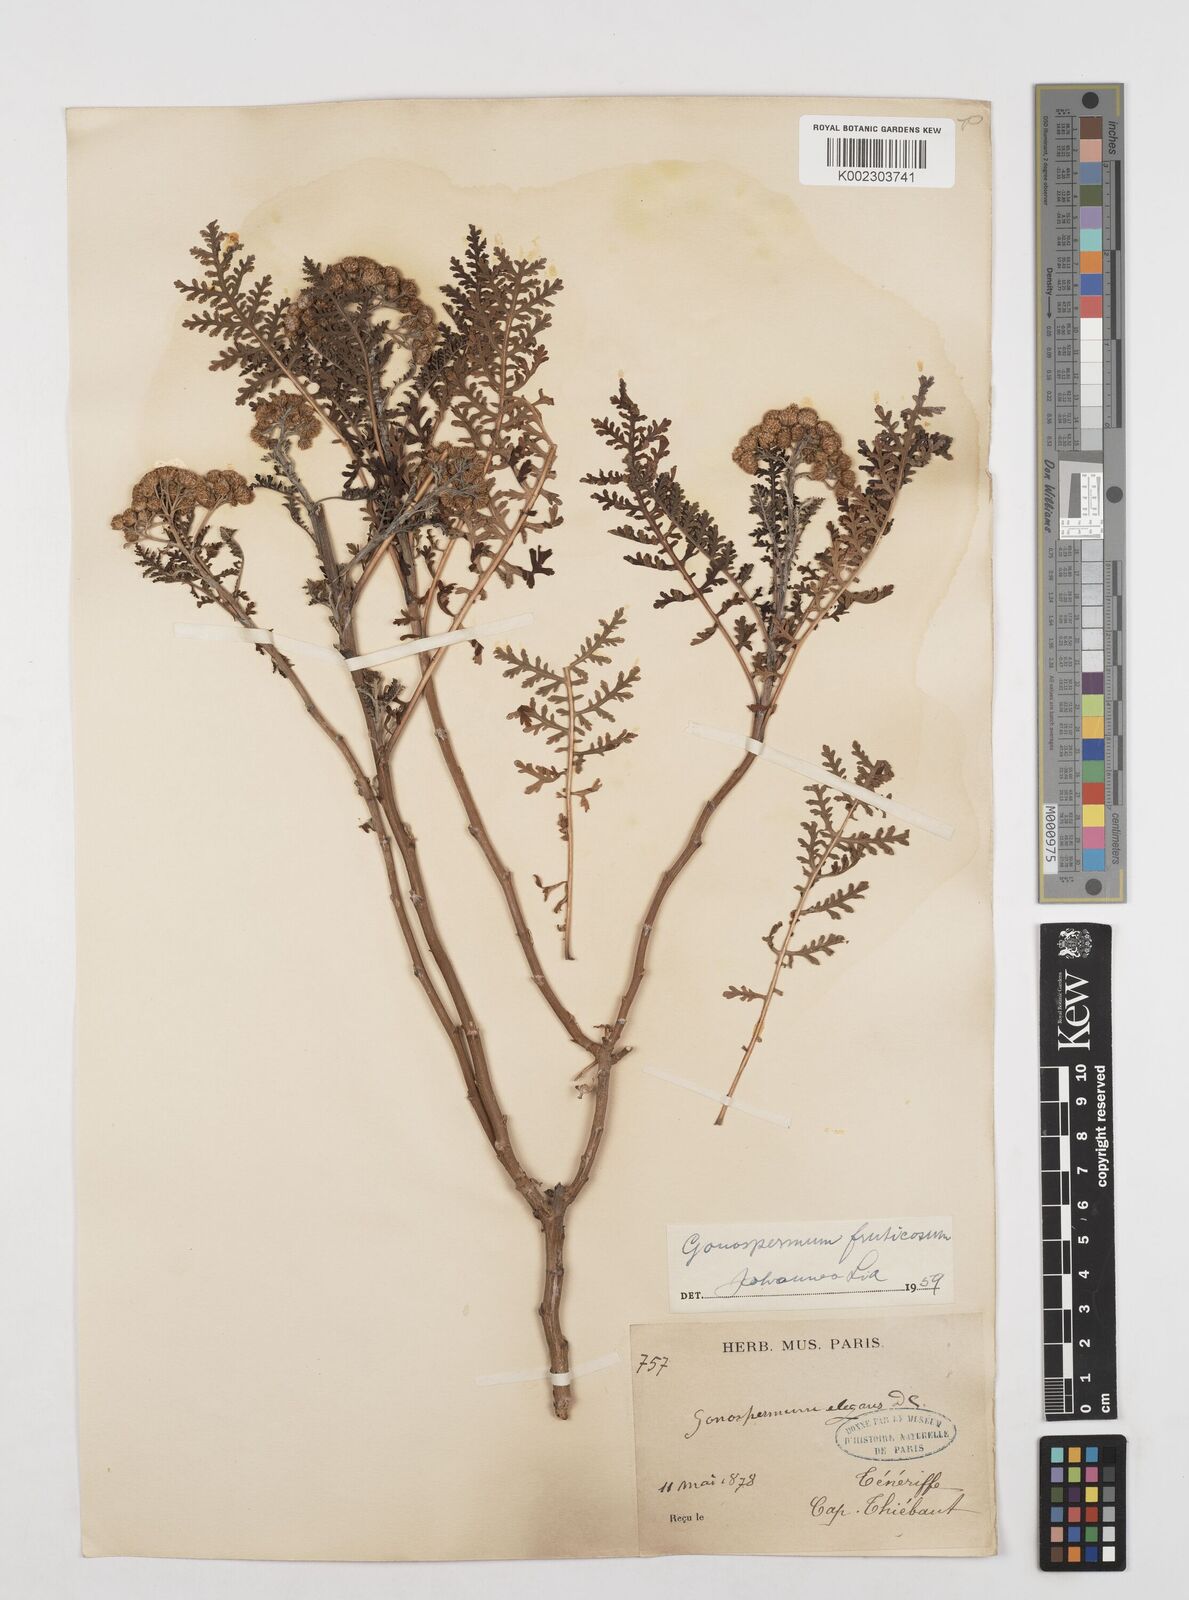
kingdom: Plantae
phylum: Tracheophyta
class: Magnoliopsida
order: Asterales
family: Asteraceae
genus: Gonospermum
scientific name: Gonospermum fruticosum
